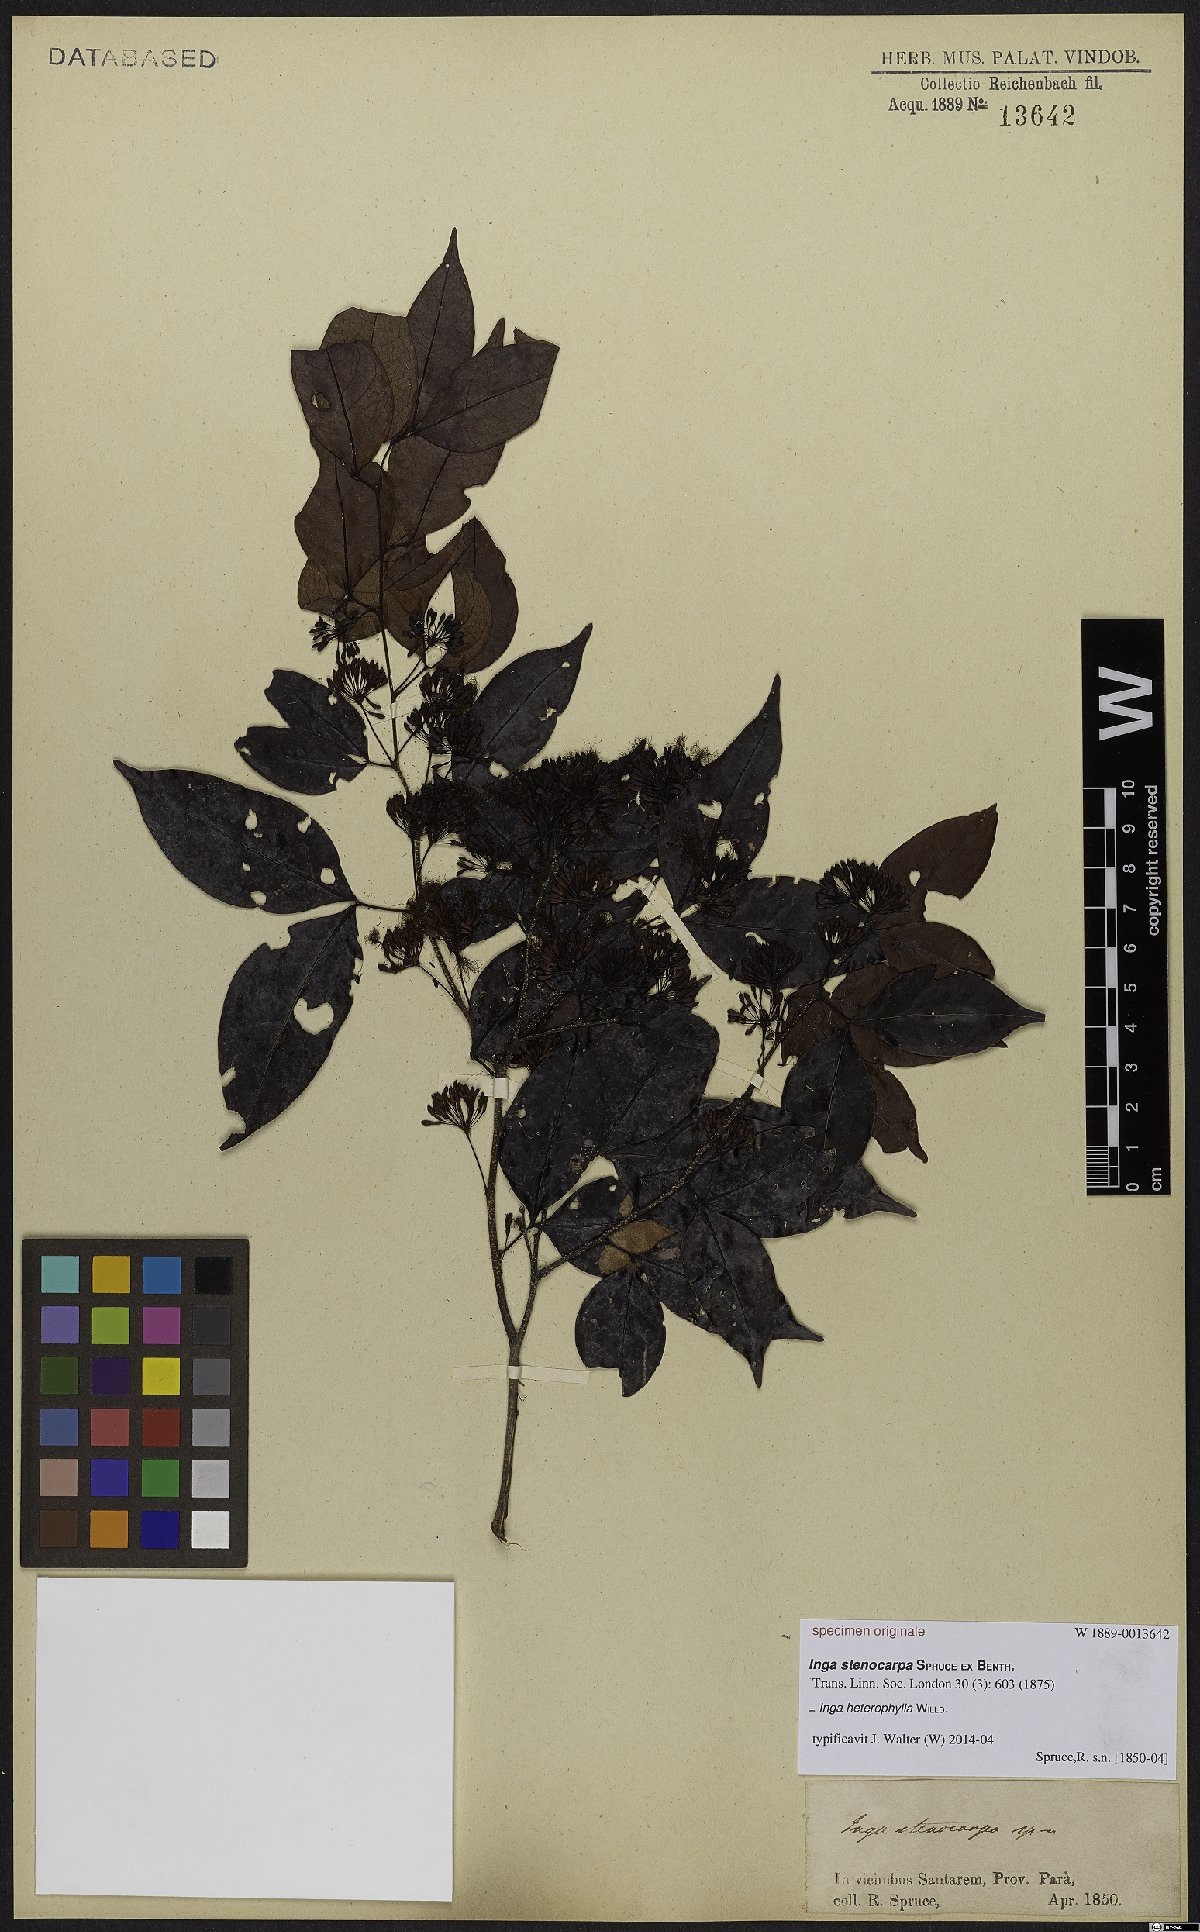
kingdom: Plantae
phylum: Tracheophyta
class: Magnoliopsida
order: Fabales
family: Fabaceae
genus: Inga
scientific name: Inga heterophylla
